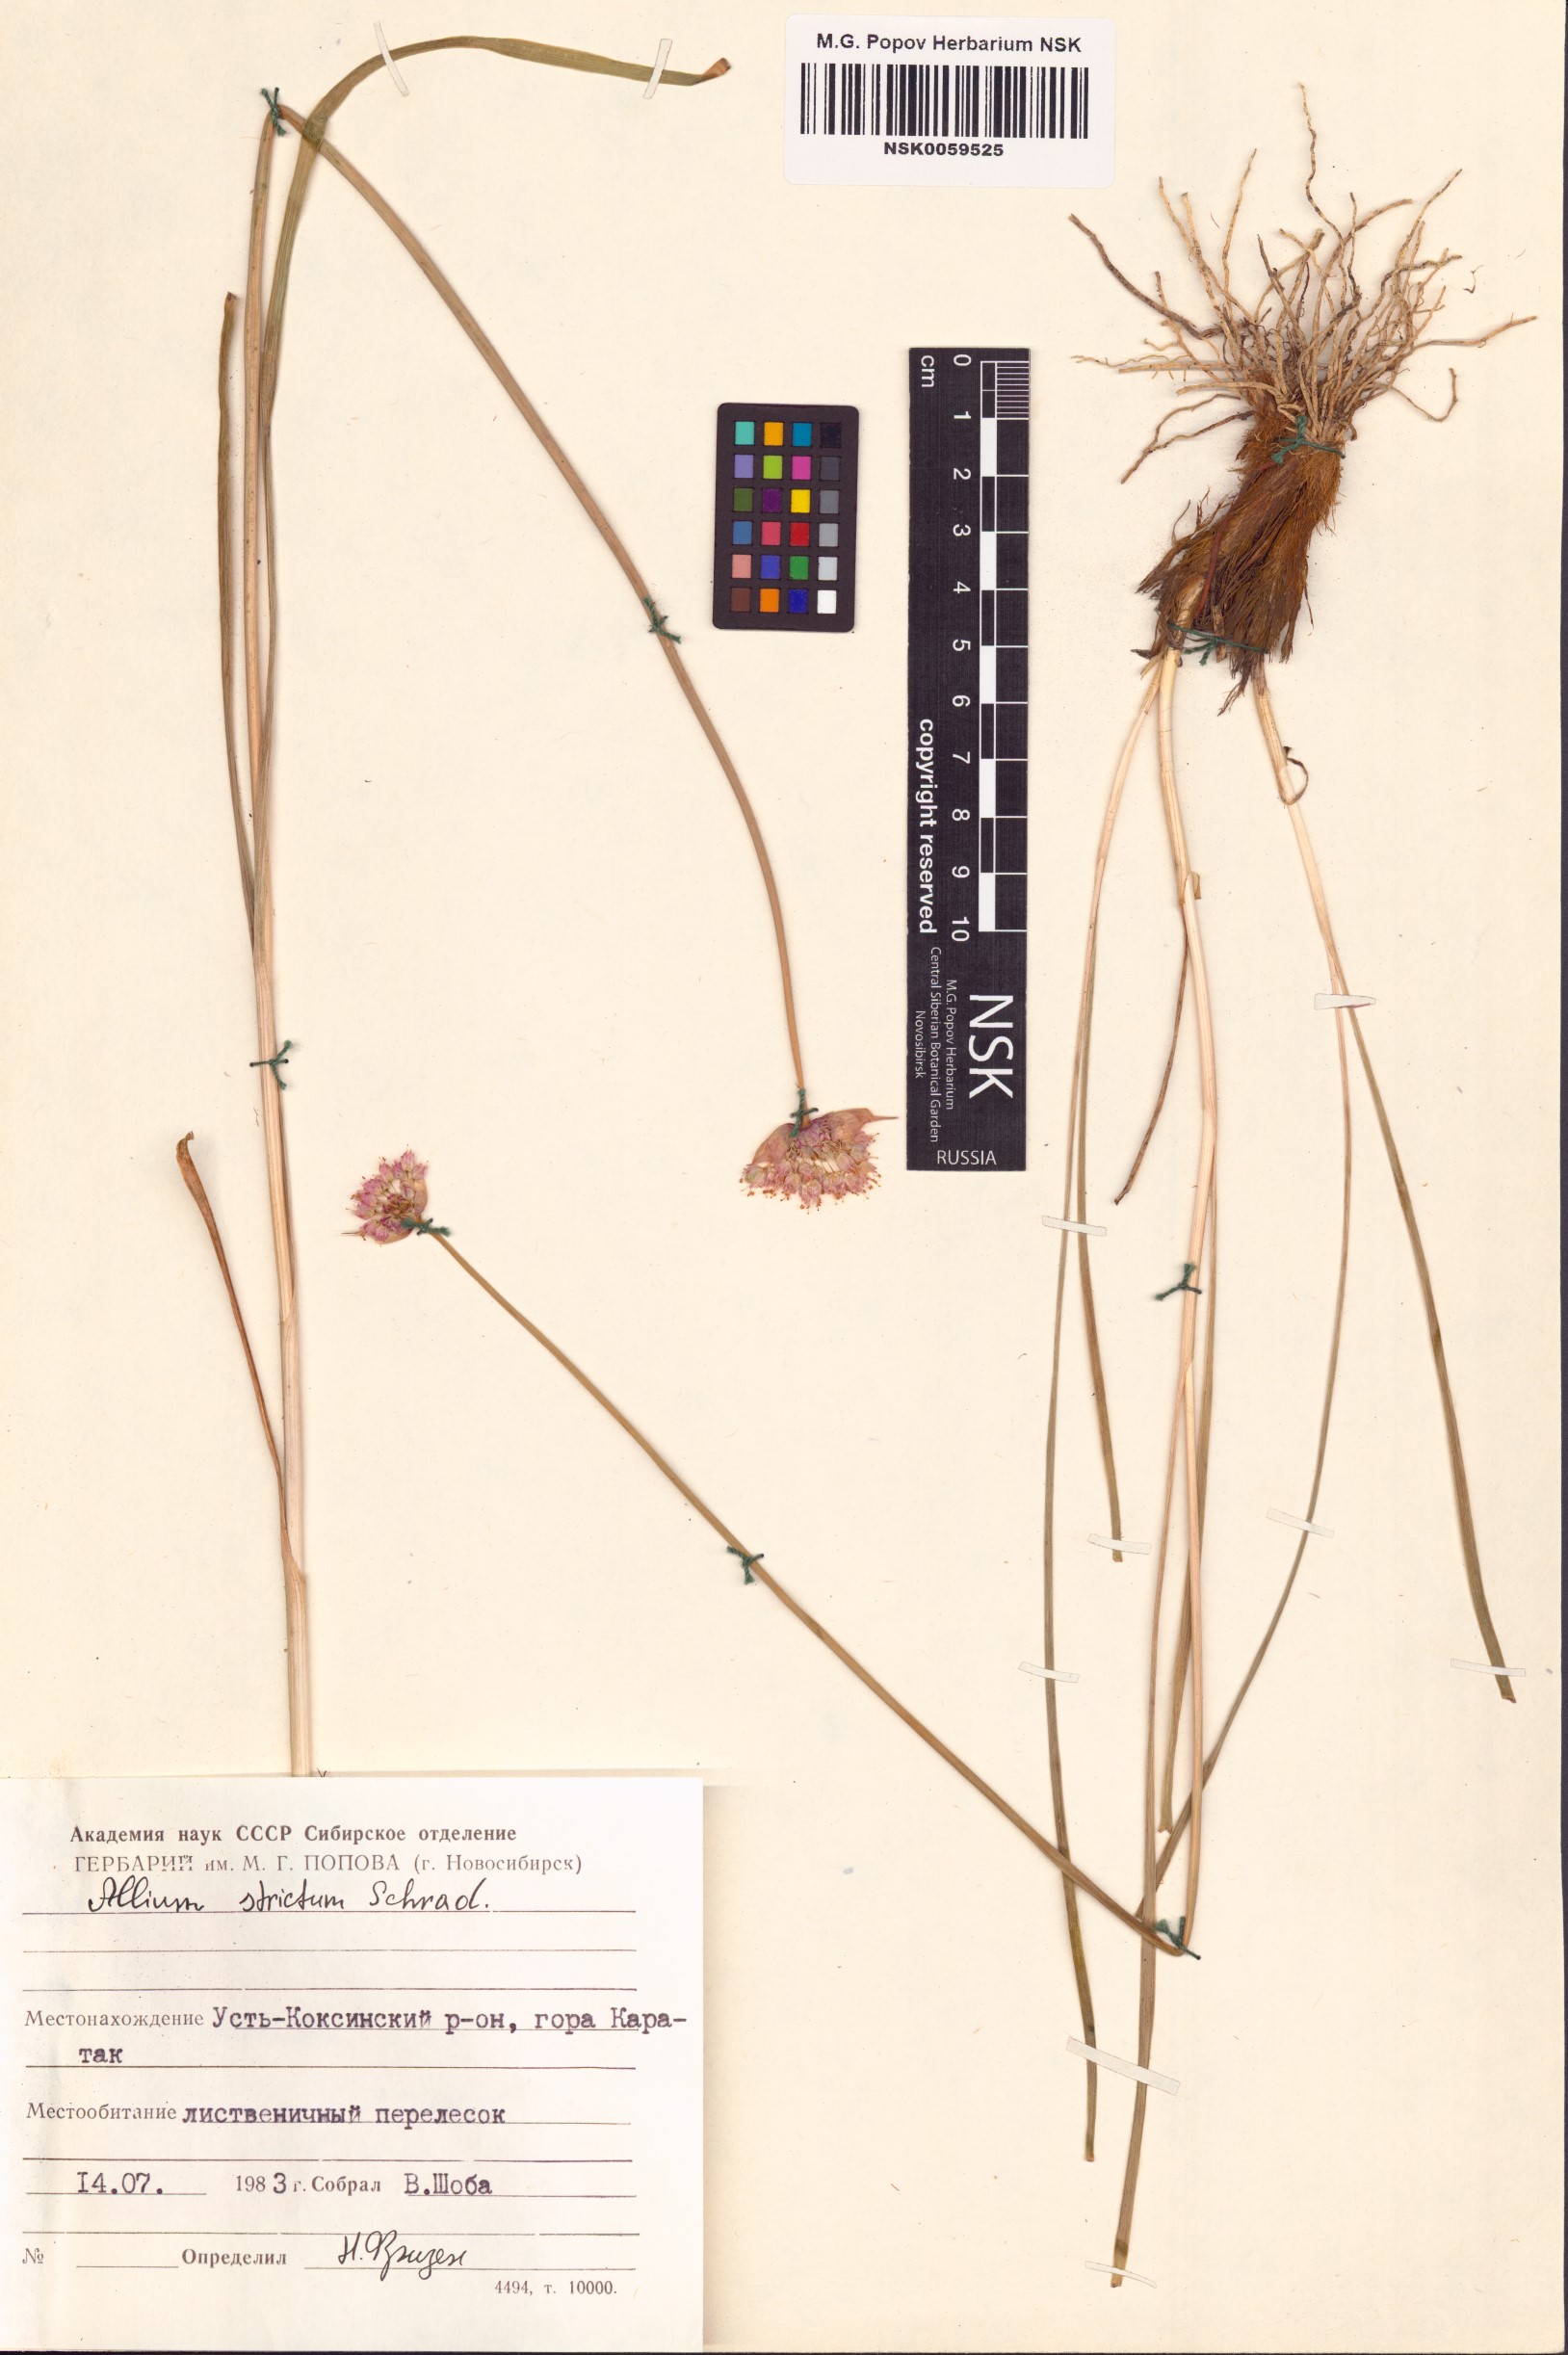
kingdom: Plantae
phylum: Tracheophyta
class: Liliopsida
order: Asparagales
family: Amaryllidaceae
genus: Allium
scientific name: Allium strictum
